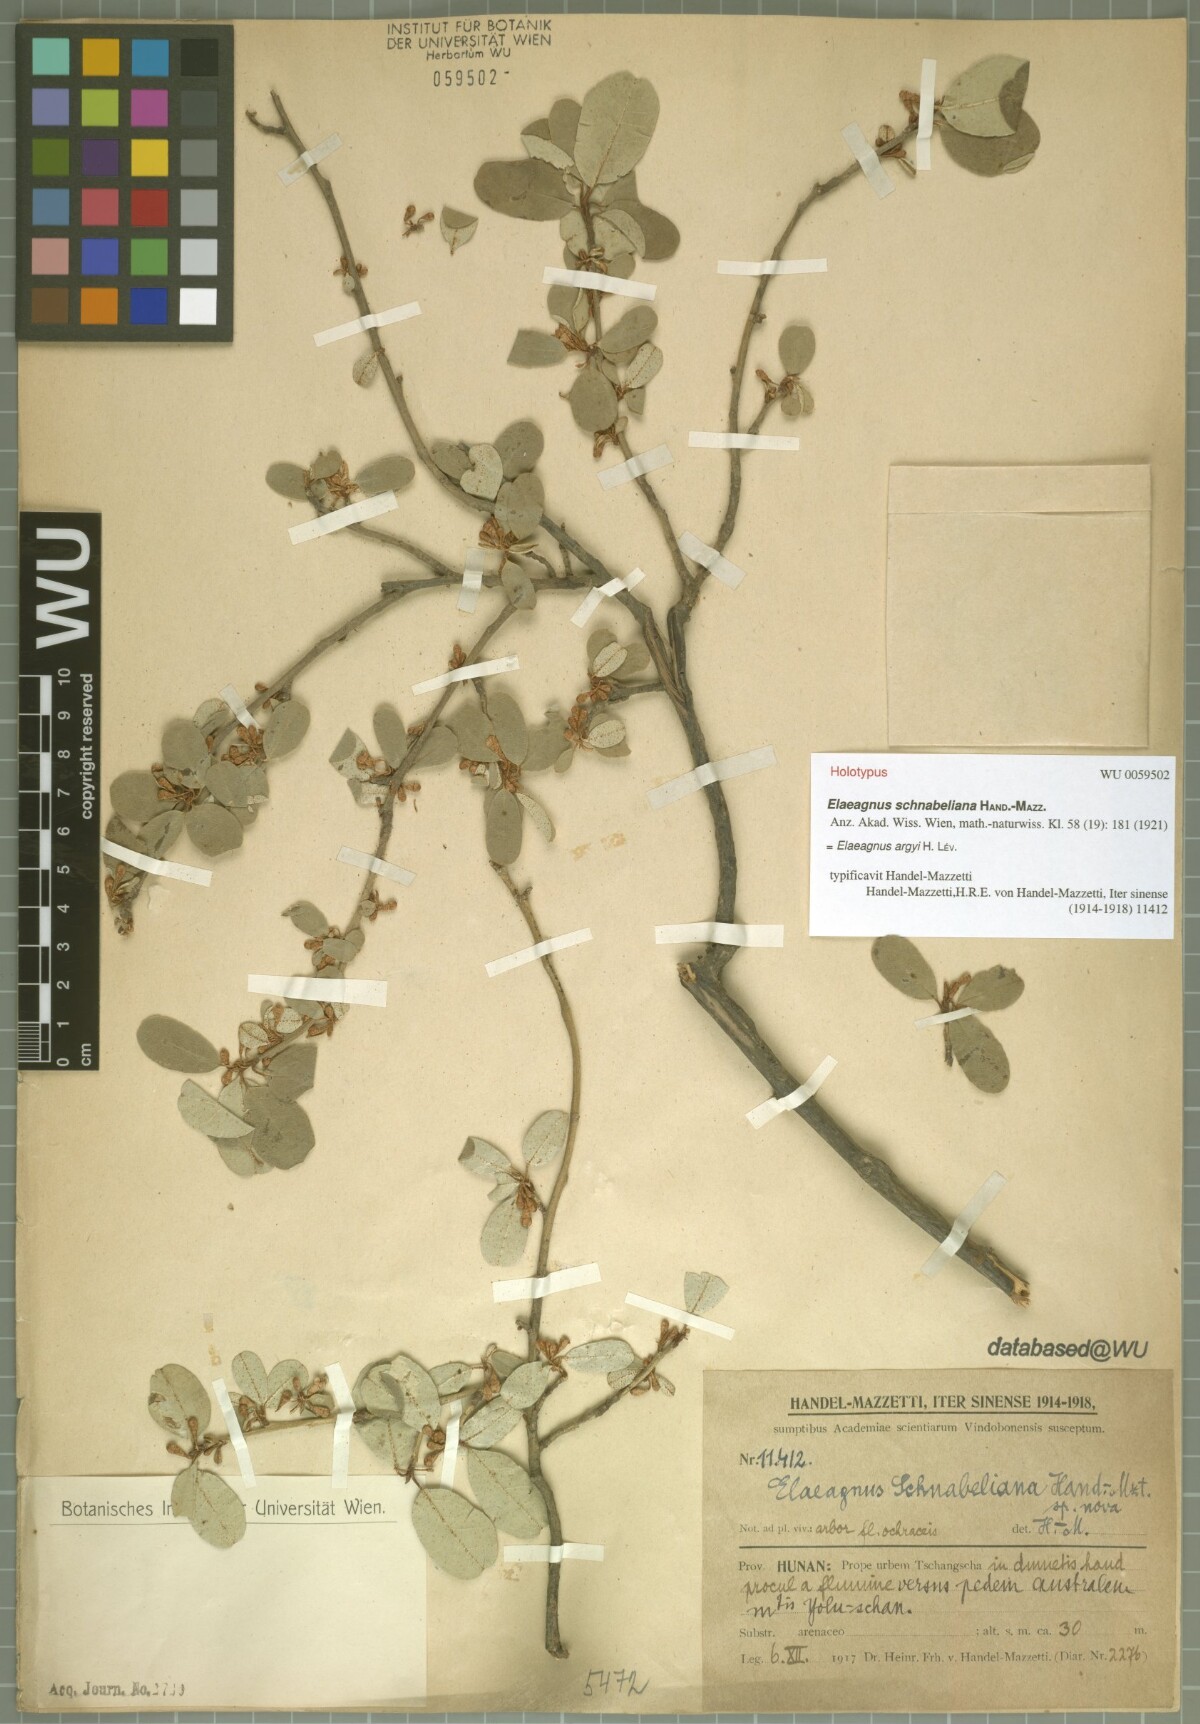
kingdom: Plantae
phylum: Tracheophyta
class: Magnoliopsida
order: Rosales
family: Elaeagnaceae
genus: Elaeagnus
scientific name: Elaeagnus argyi
